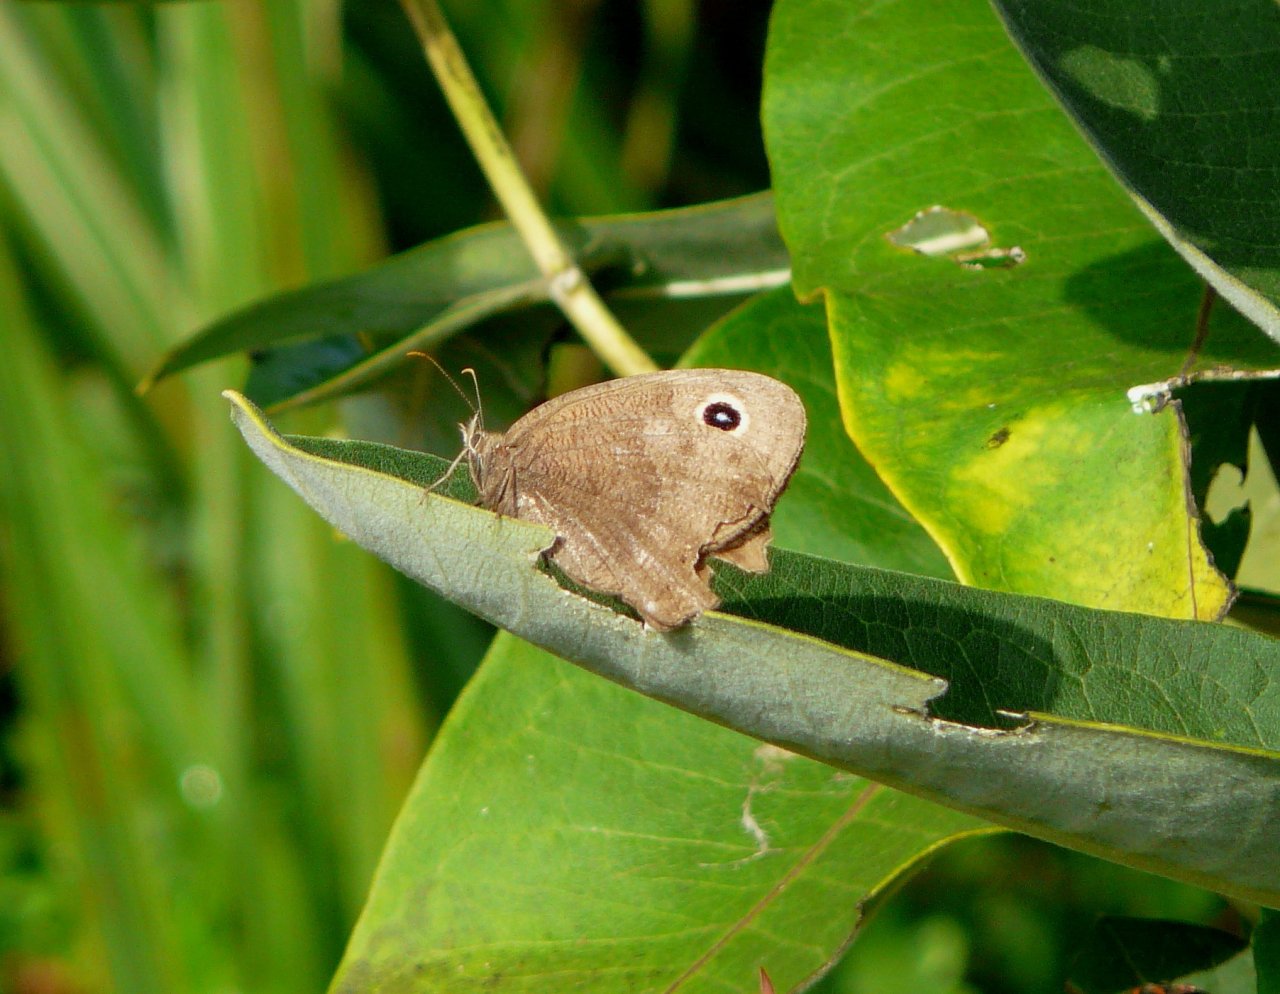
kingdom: Animalia
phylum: Arthropoda
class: Insecta
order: Lepidoptera
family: Nymphalidae
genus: Cercyonis
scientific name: Cercyonis pegala
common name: Common Wood-Nymph
